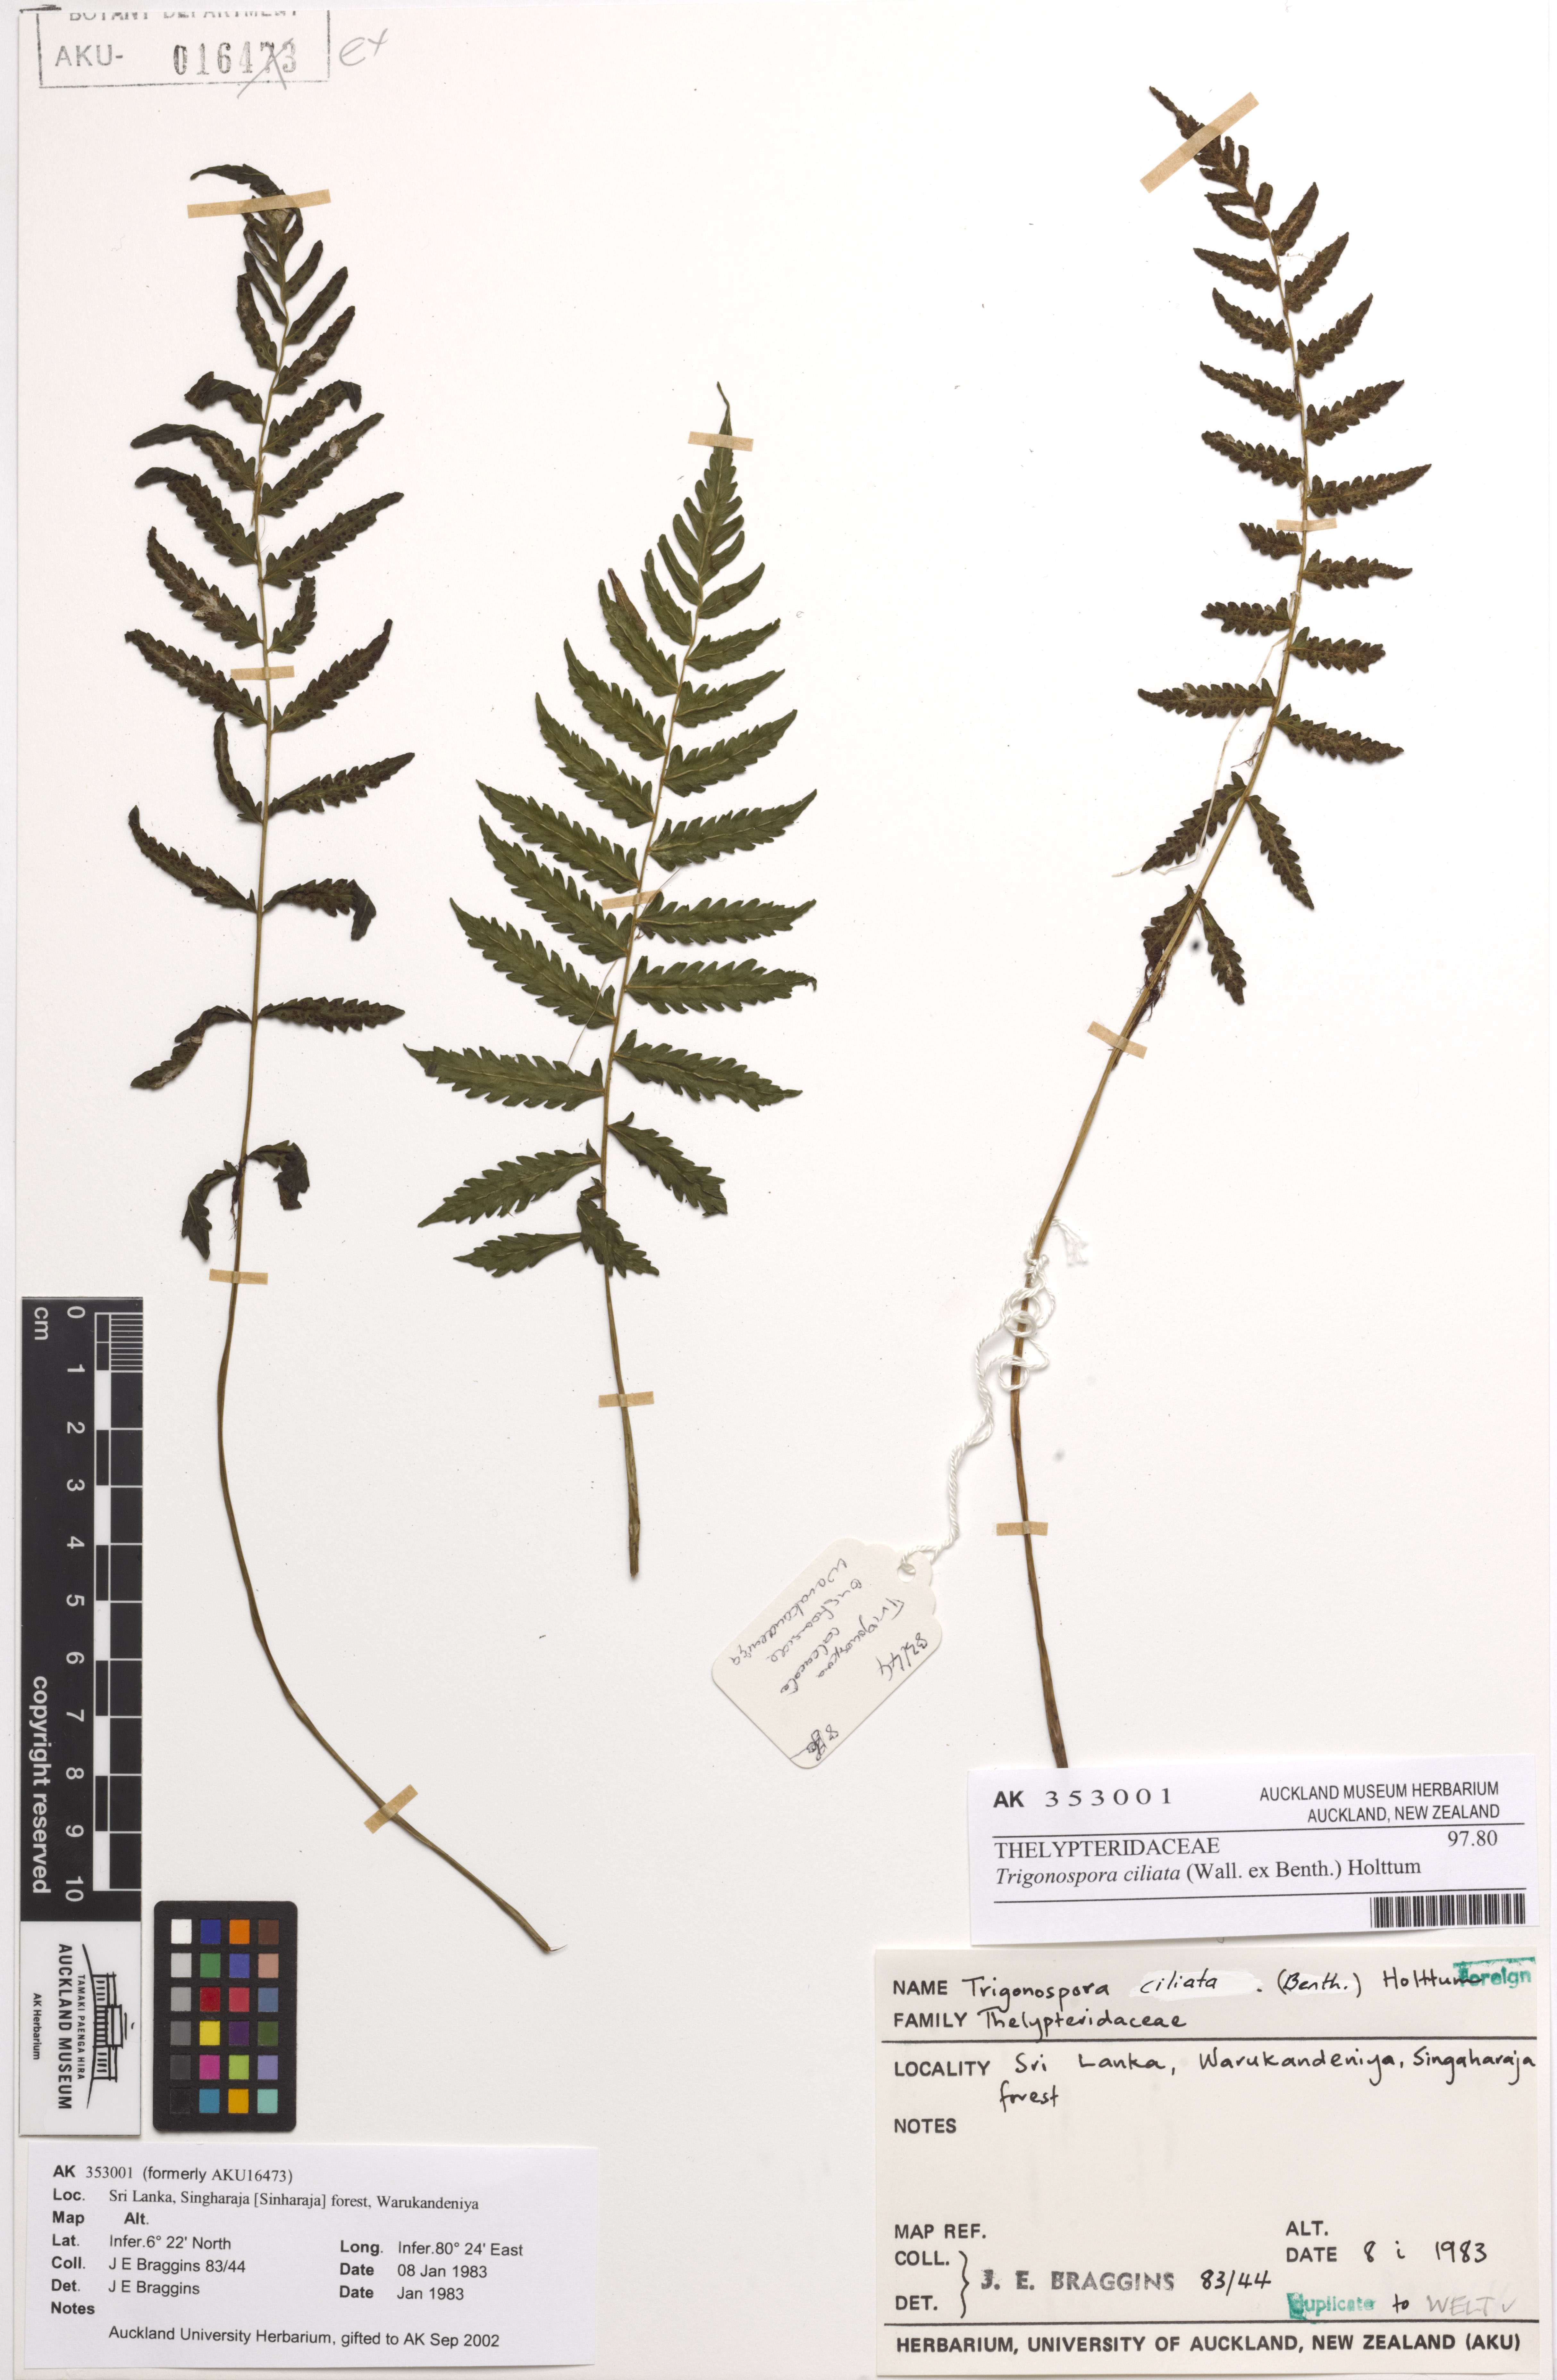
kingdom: Plantae
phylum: Tracheophyta
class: Polypodiopsida
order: Hymenophyllales
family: Hymenophyllaceae
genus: Hymenophyllum
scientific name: Hymenophyllum macroglossum
